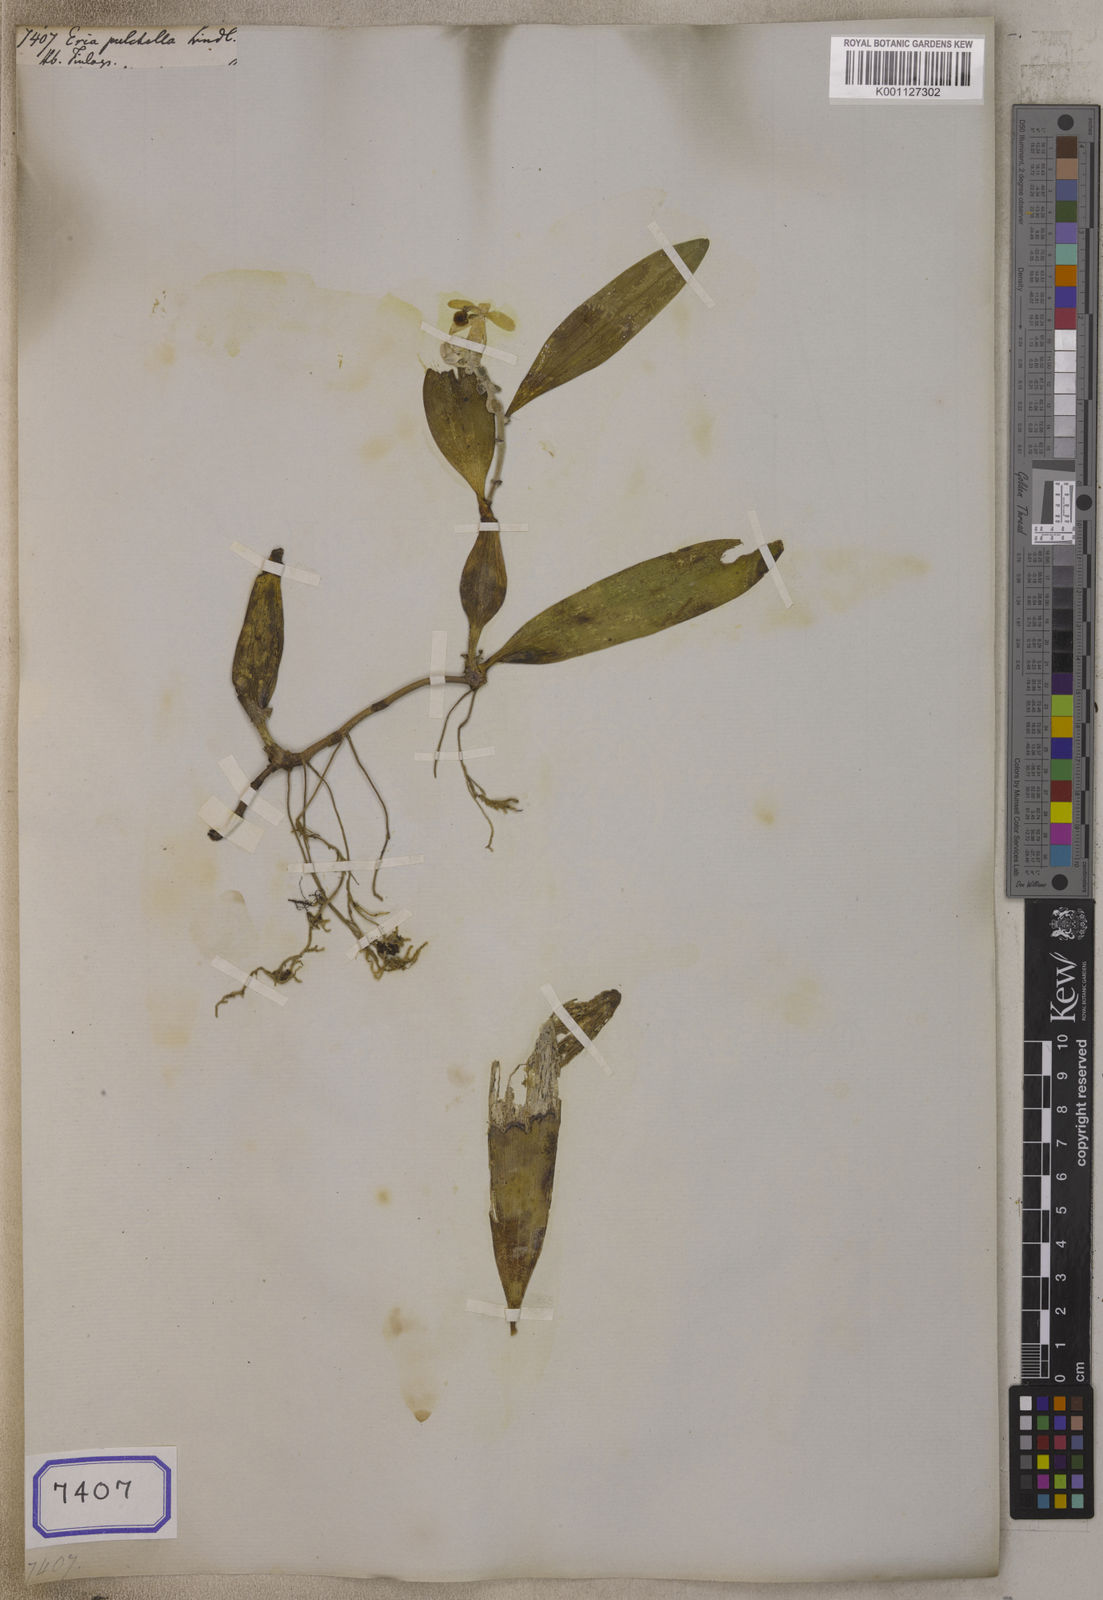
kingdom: Plantae
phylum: Tracheophyta
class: Liliopsida
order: Asparagales
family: Orchidaceae
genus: Callostylis
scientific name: Callostylis pulchella
